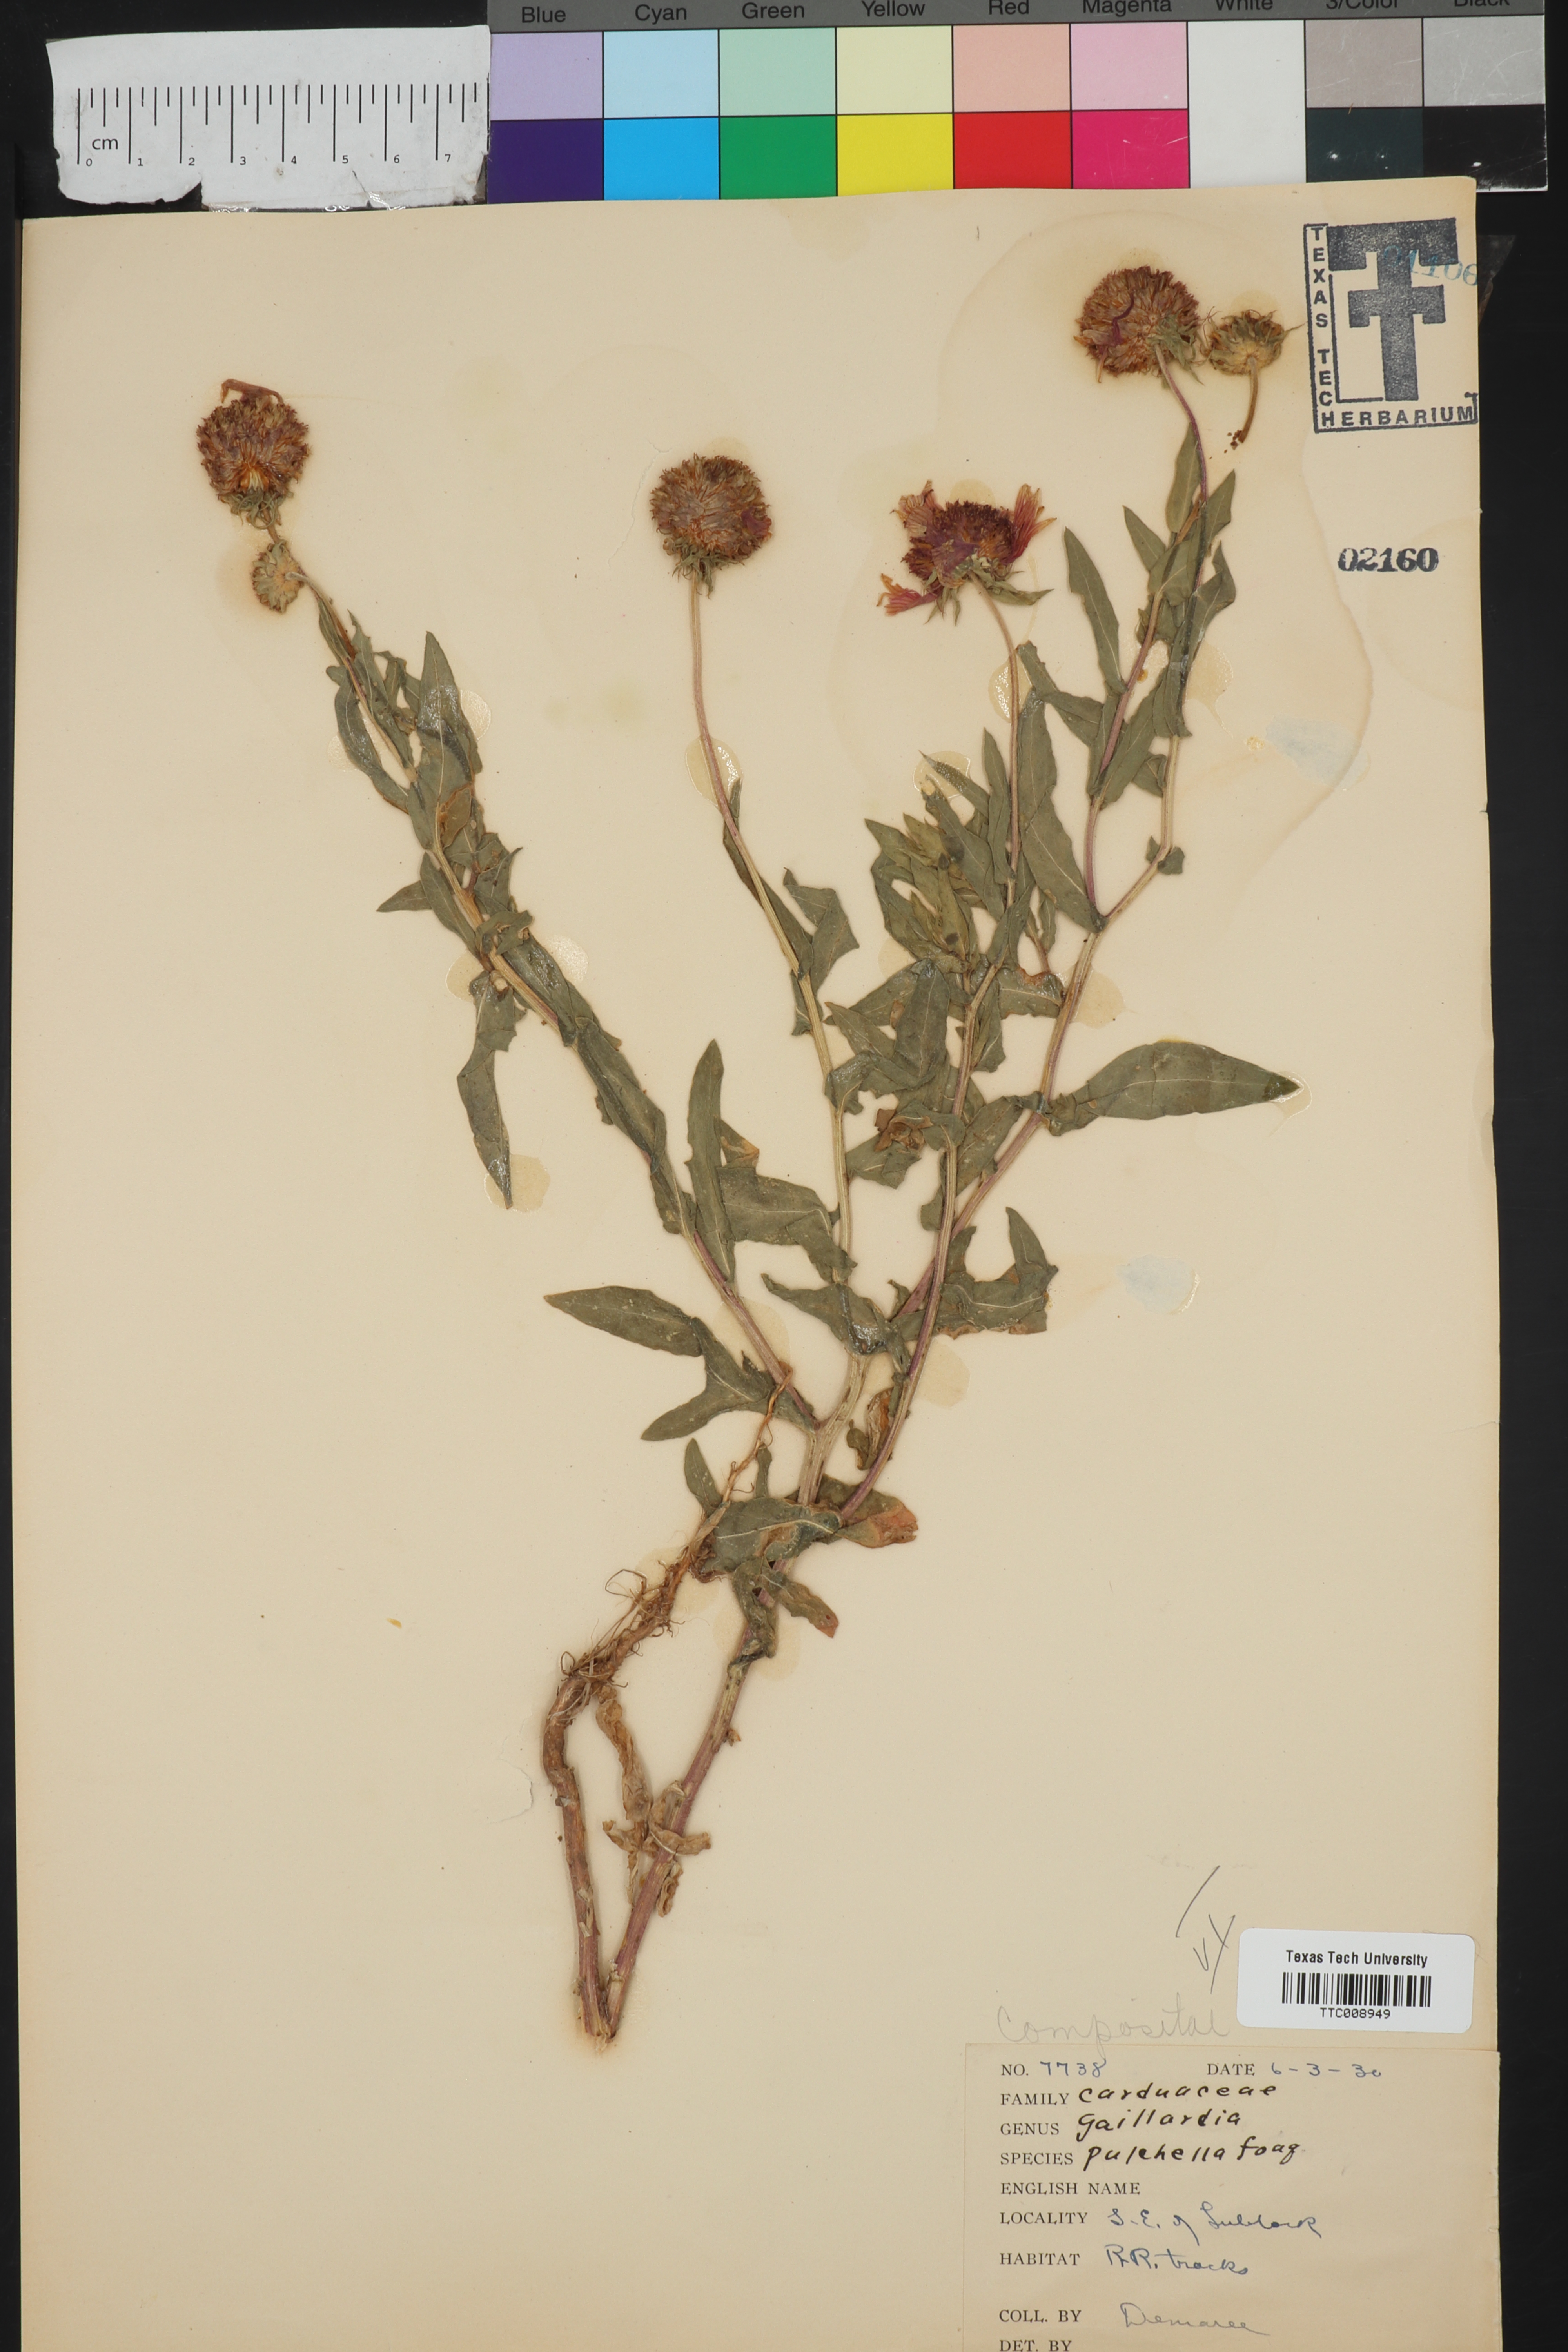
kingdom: Plantae
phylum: Tracheophyta
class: Magnoliopsida
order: Asterales
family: Asteraceae
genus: Gaillardia
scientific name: Gaillardia pulchella
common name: Firewheel
